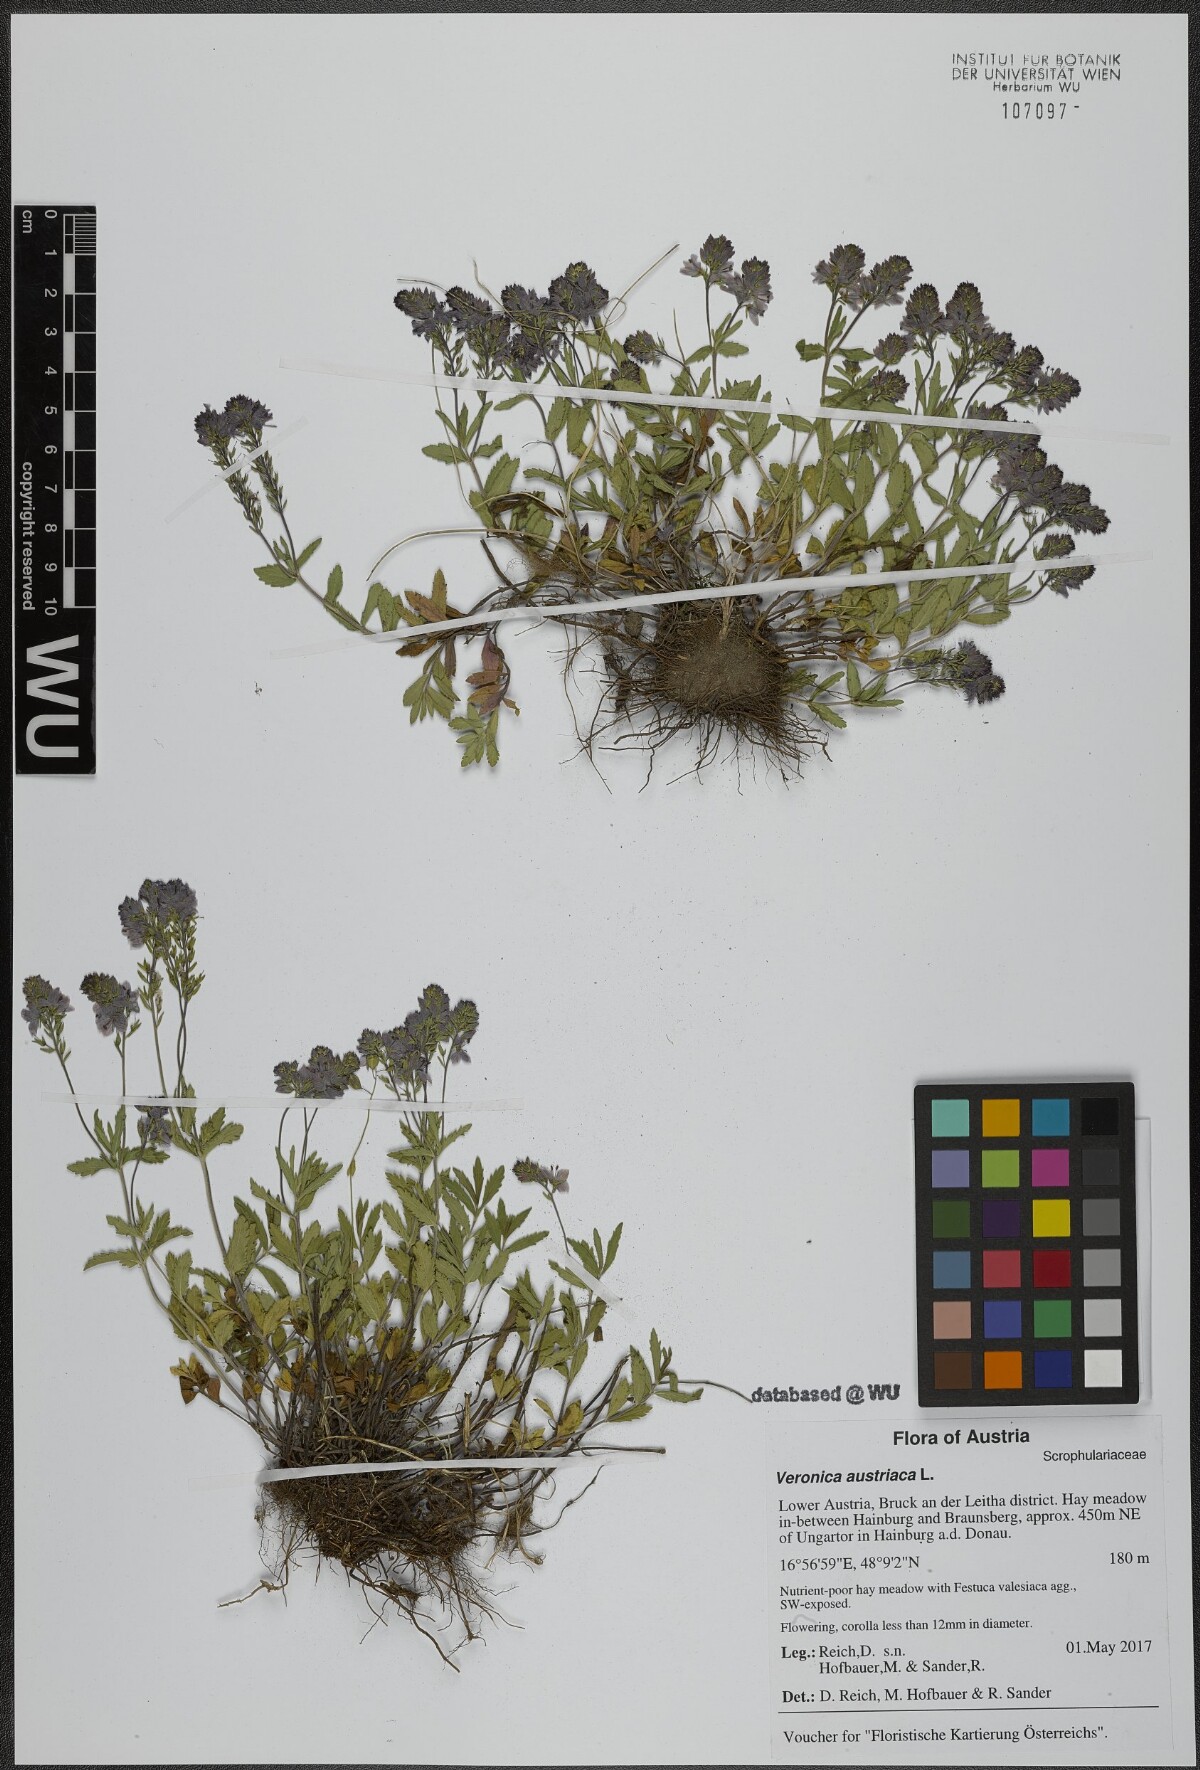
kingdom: Plantae
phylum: Tracheophyta
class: Magnoliopsida
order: Lamiales
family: Plantaginaceae
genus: Veronica
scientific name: Veronica austriaca
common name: Large speedwell
